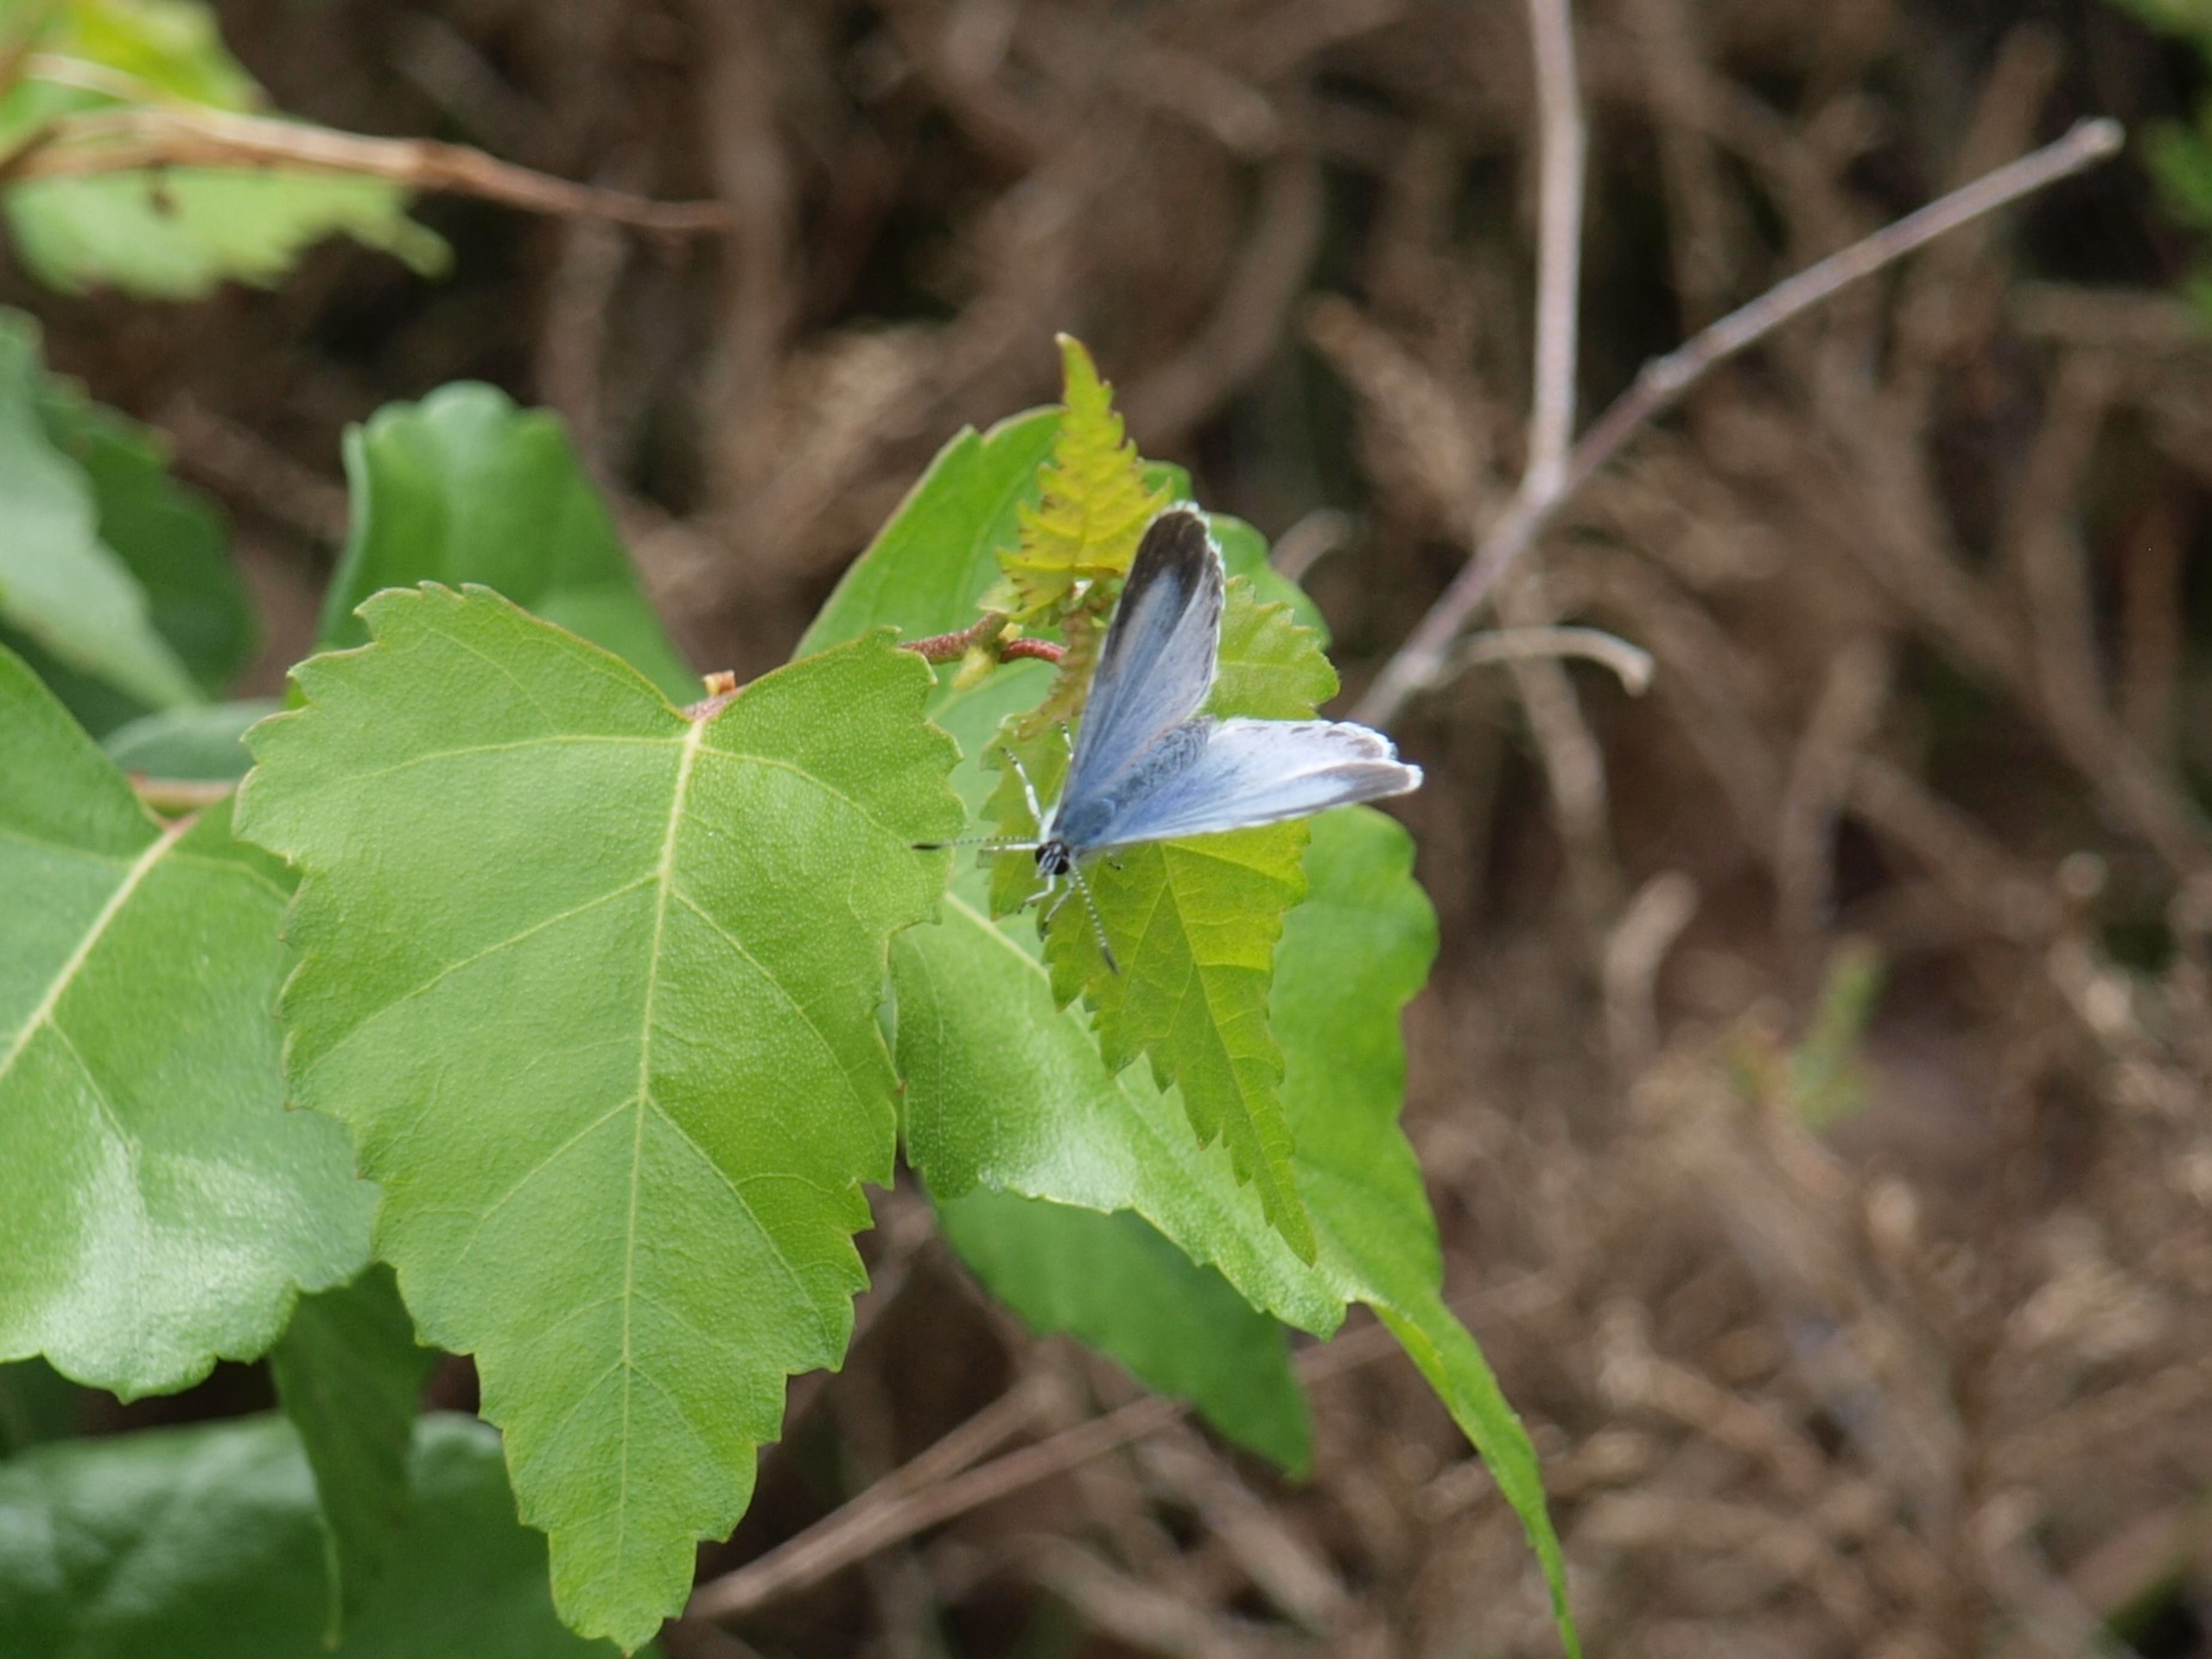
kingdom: Animalia
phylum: Arthropoda
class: Insecta
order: Lepidoptera
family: Lycaenidae
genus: Celastrina
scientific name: Celastrina argiolus
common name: Skovblåfugl
